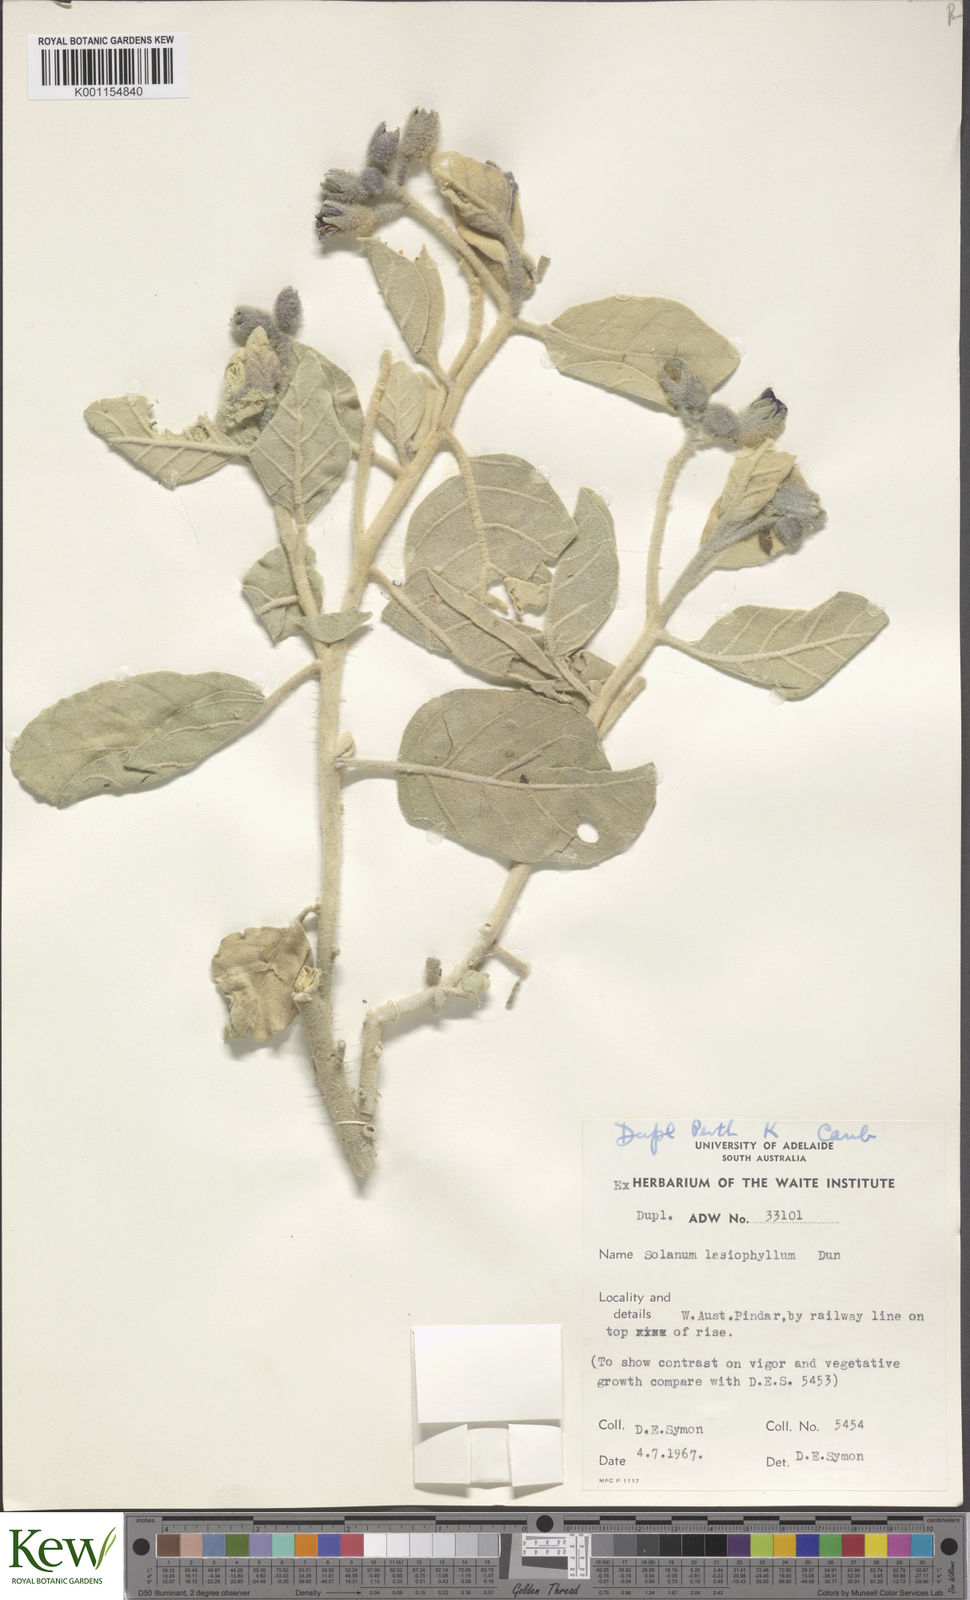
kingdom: Plantae
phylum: Tracheophyta
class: Magnoliopsida
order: Solanales
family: Solanaceae
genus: Solanum
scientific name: Solanum lasiophyllum
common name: Flannelbush
